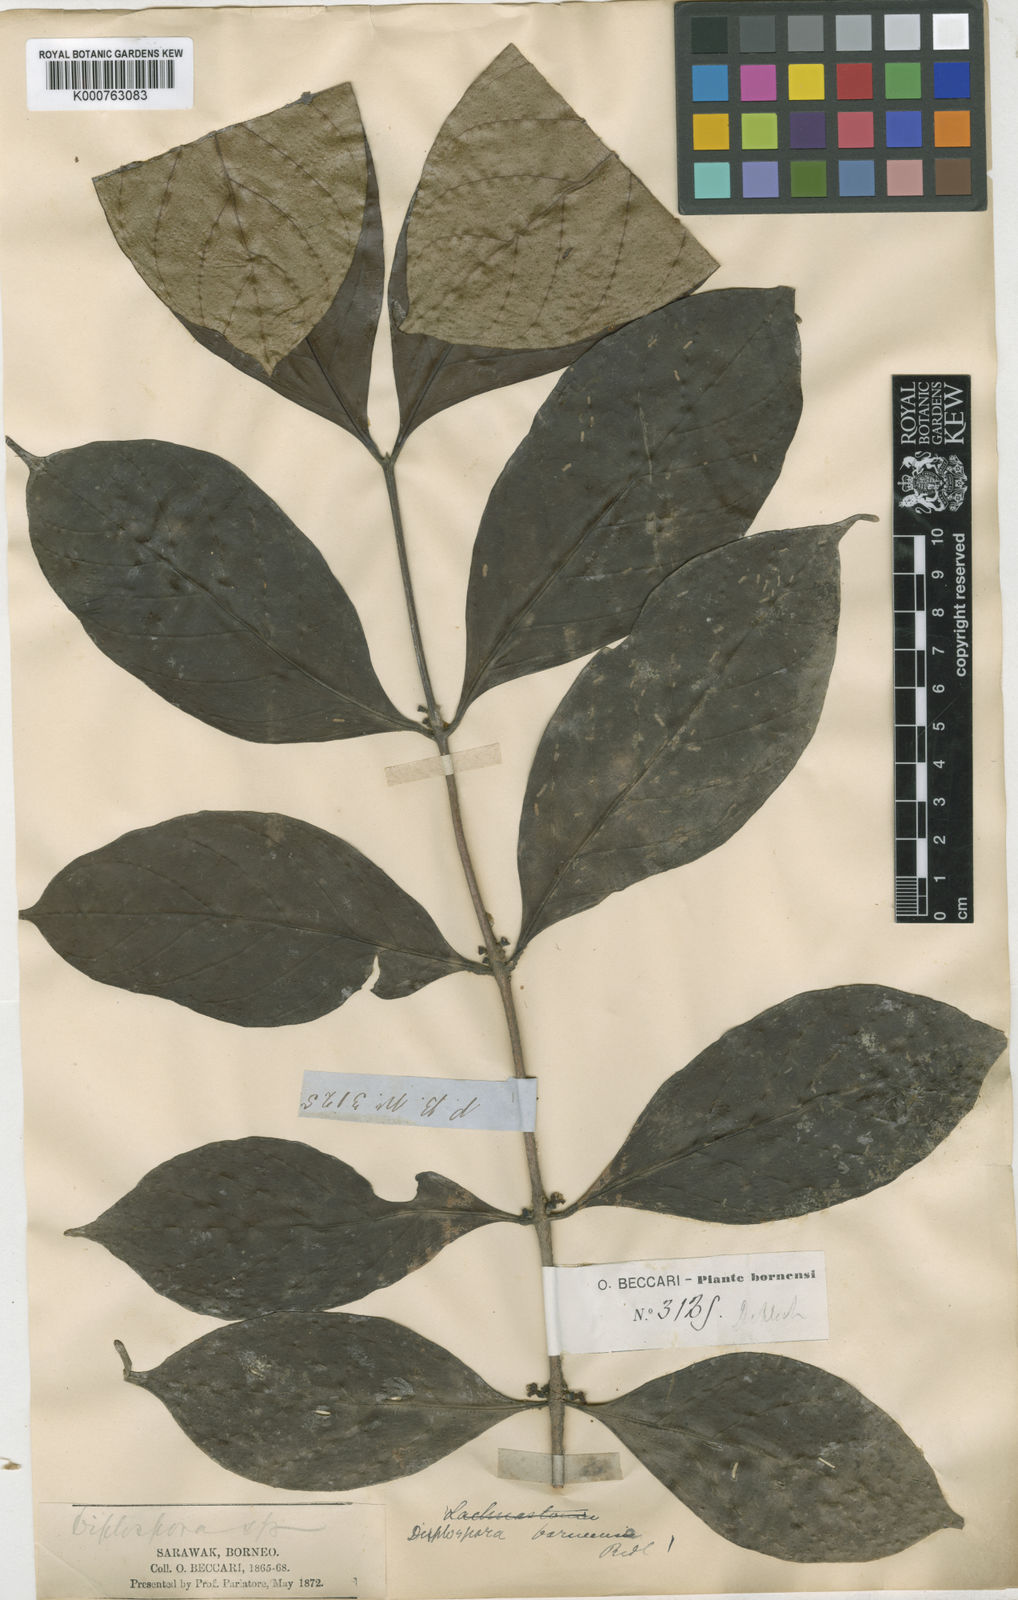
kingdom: Plantae
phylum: Tracheophyta
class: Magnoliopsida
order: Gentianales
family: Rubiaceae
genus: Discospermum
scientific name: Discospermum
